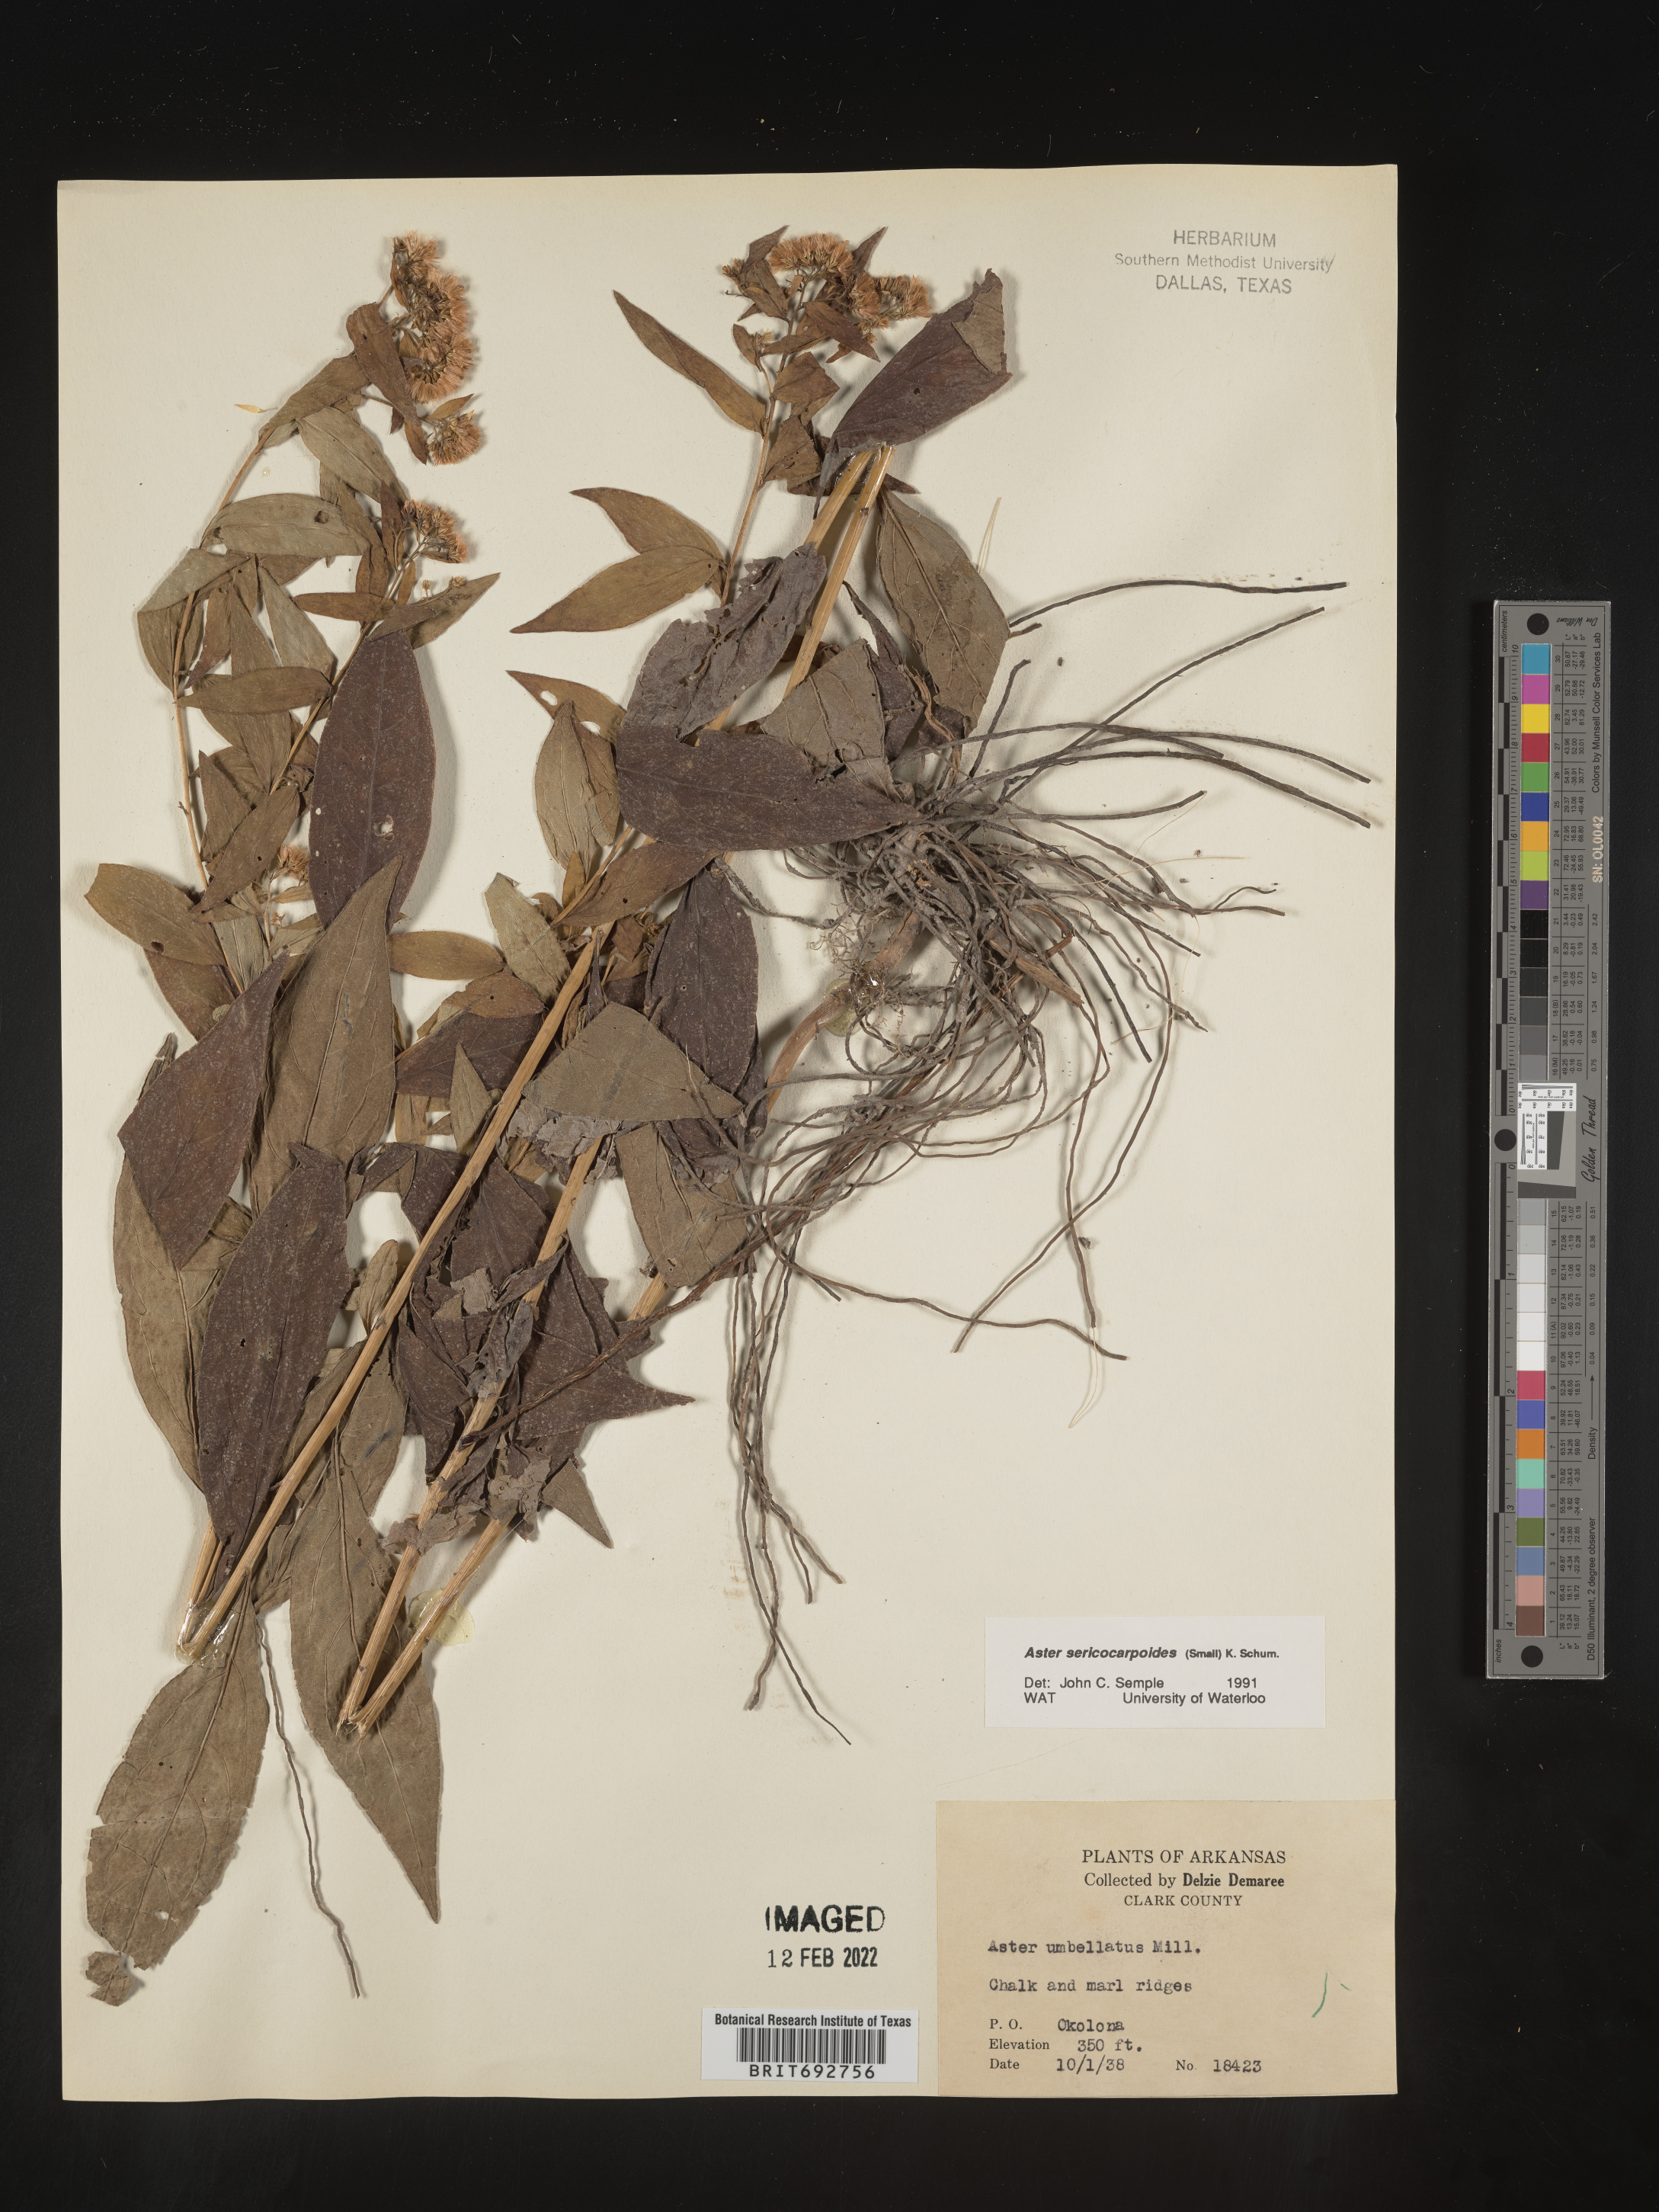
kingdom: Plantae
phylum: Tracheophyta
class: Magnoliopsida
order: Asterales
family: Asteraceae
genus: Doellingeria
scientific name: Doellingeria sericocarpoides
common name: Southern tall flat-top aster
